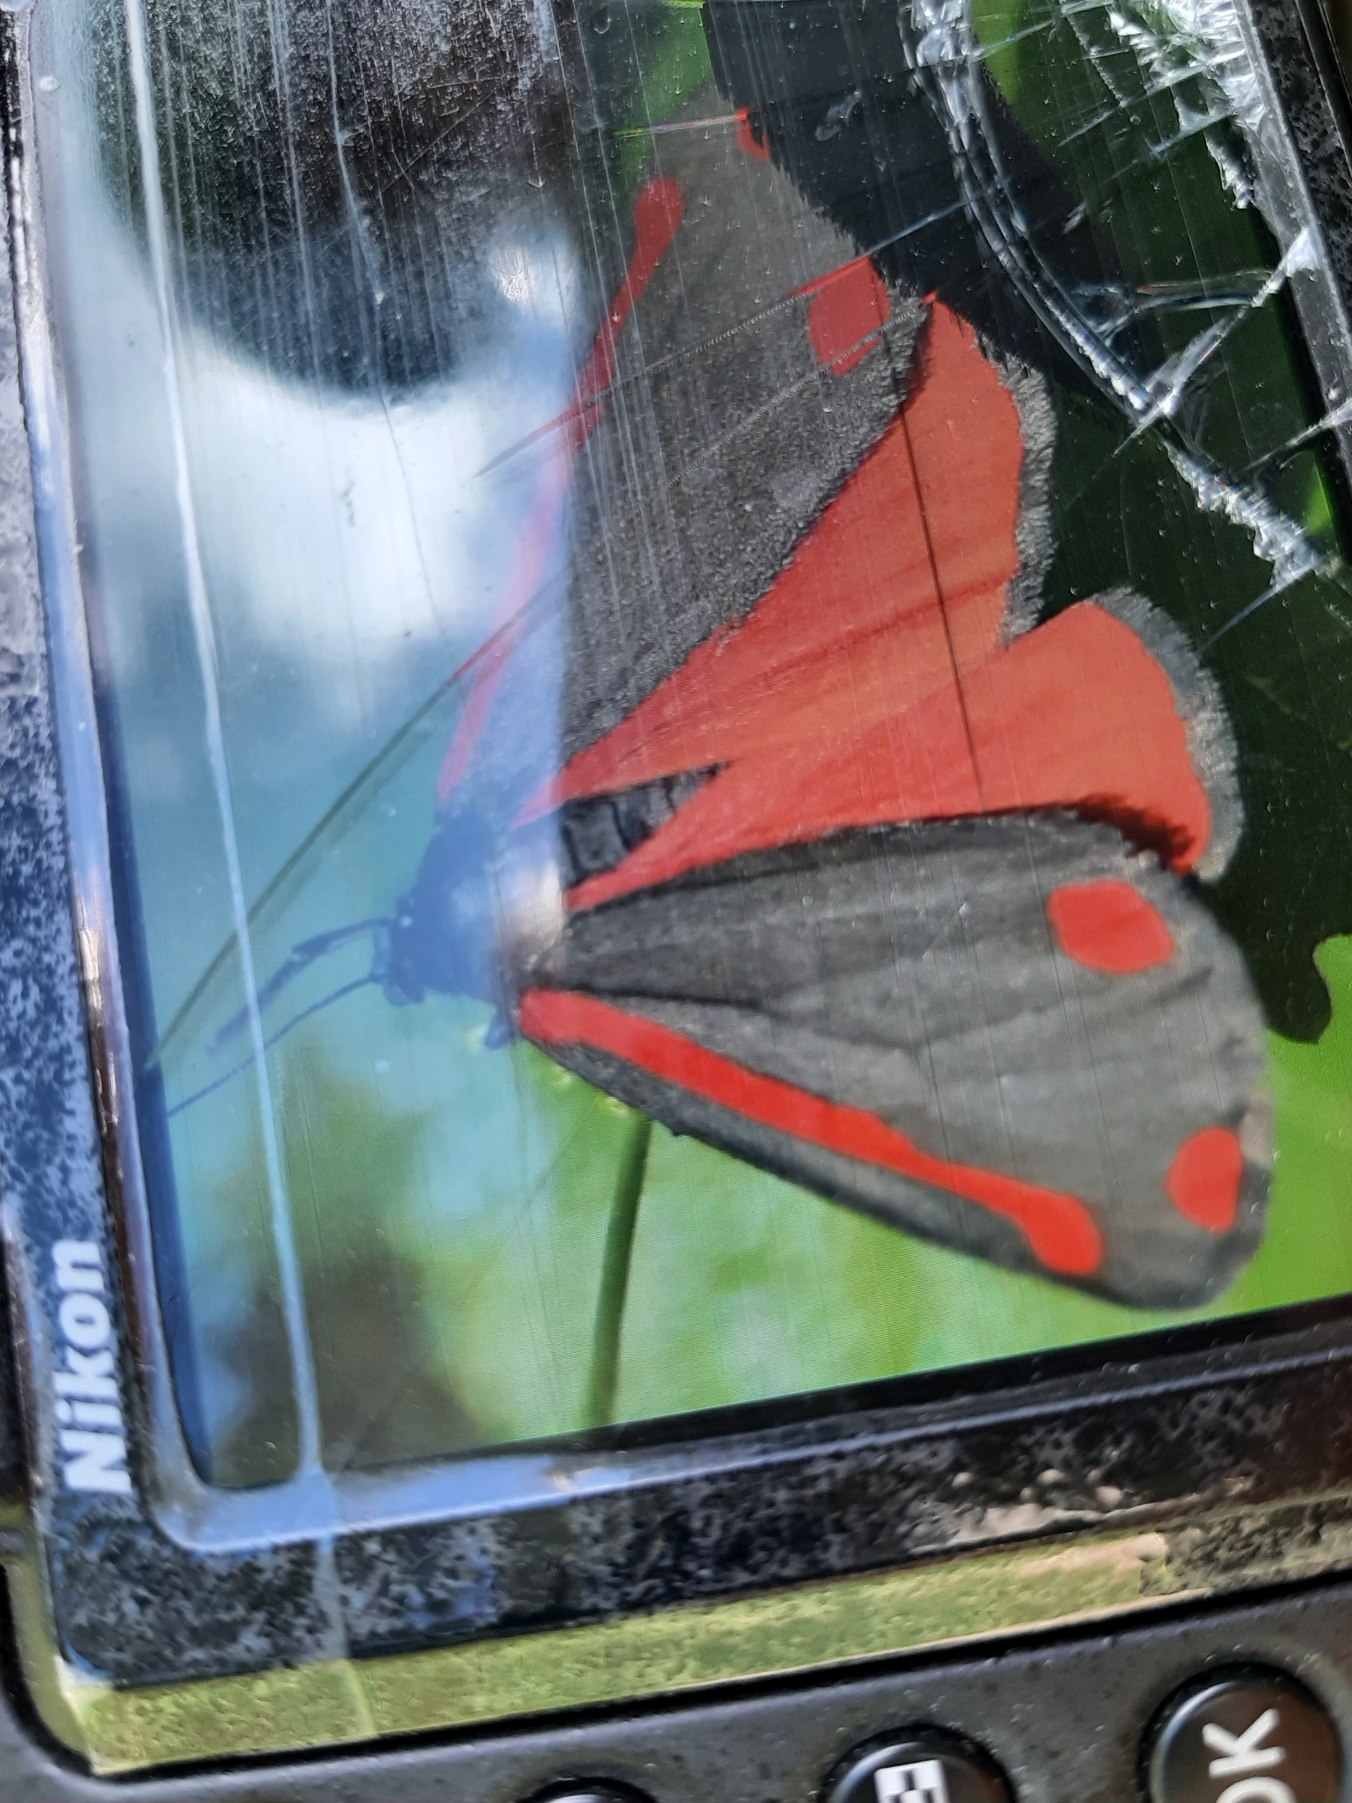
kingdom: Animalia
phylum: Arthropoda
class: Insecta
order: Lepidoptera
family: Erebidae
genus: Tyria
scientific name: Tyria jacobaeae
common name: Blodplet
